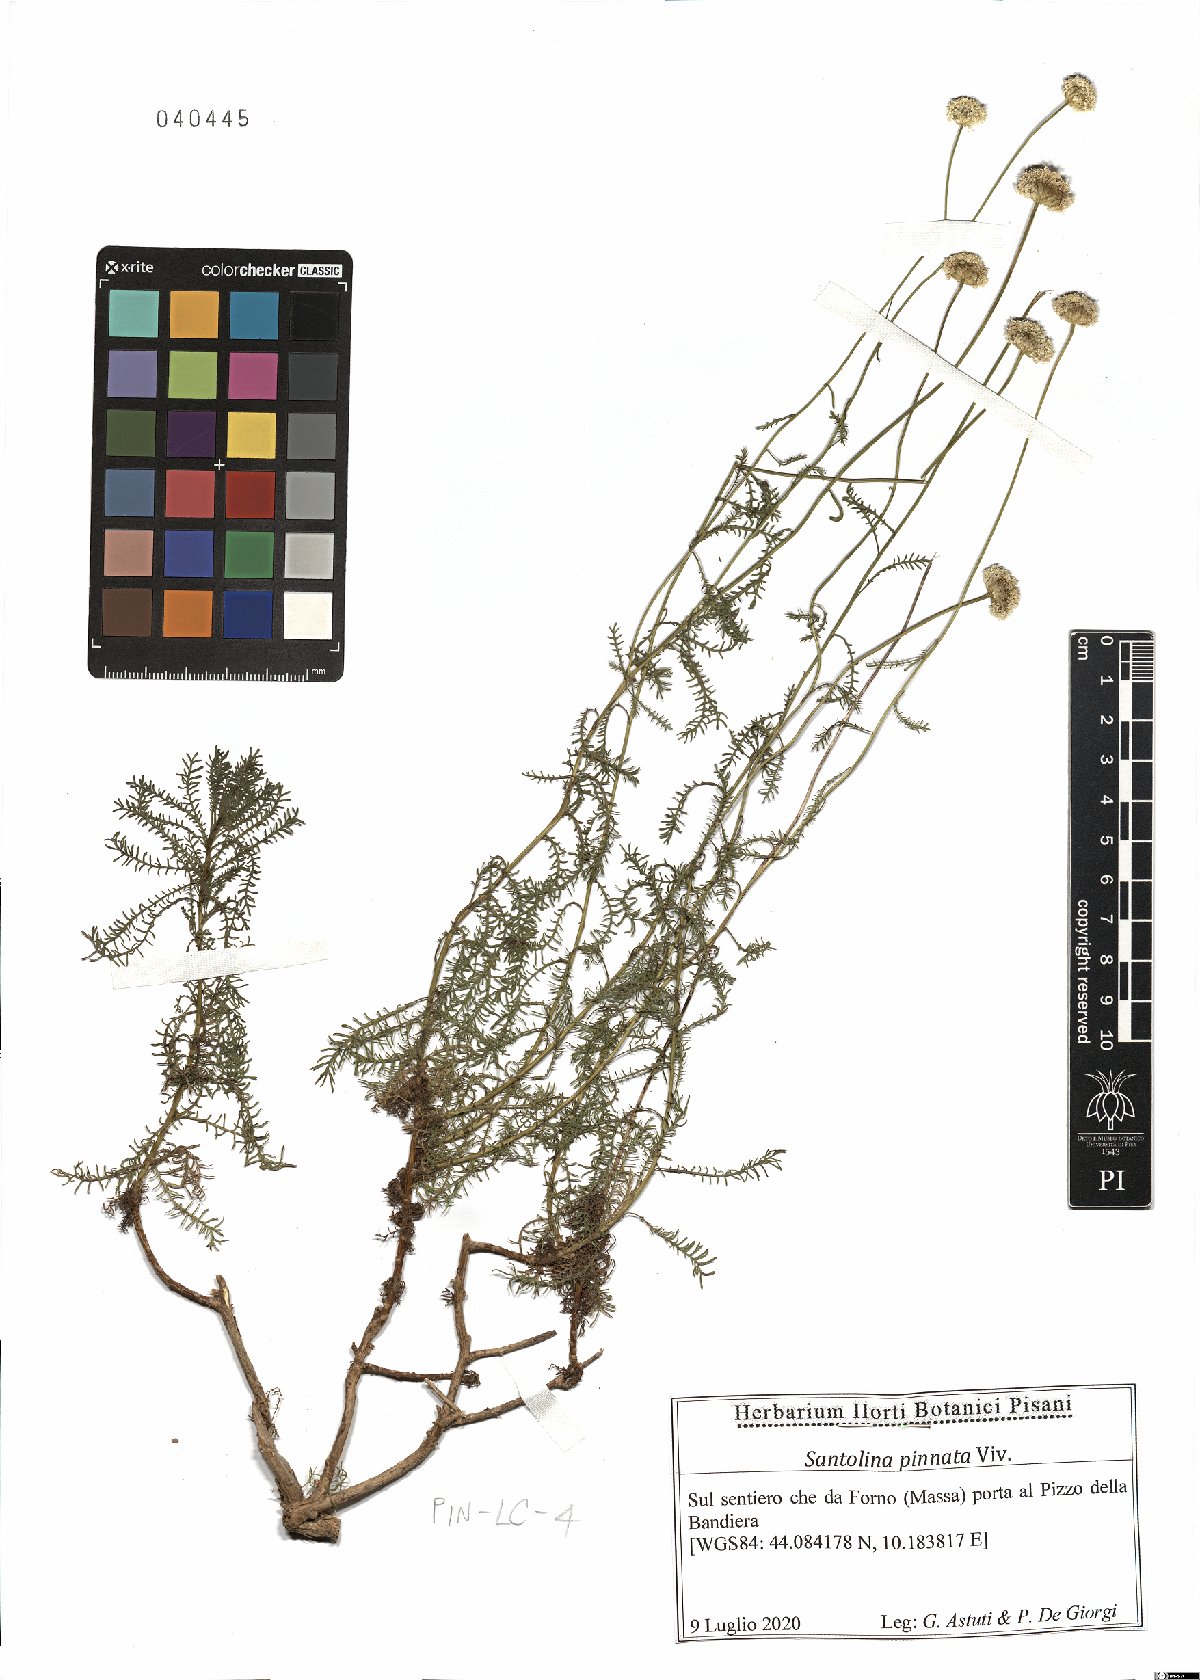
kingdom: Plantae
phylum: Tracheophyta
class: Magnoliopsida
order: Asterales
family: Asteraceae
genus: Santolina
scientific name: Santolina pinnata
